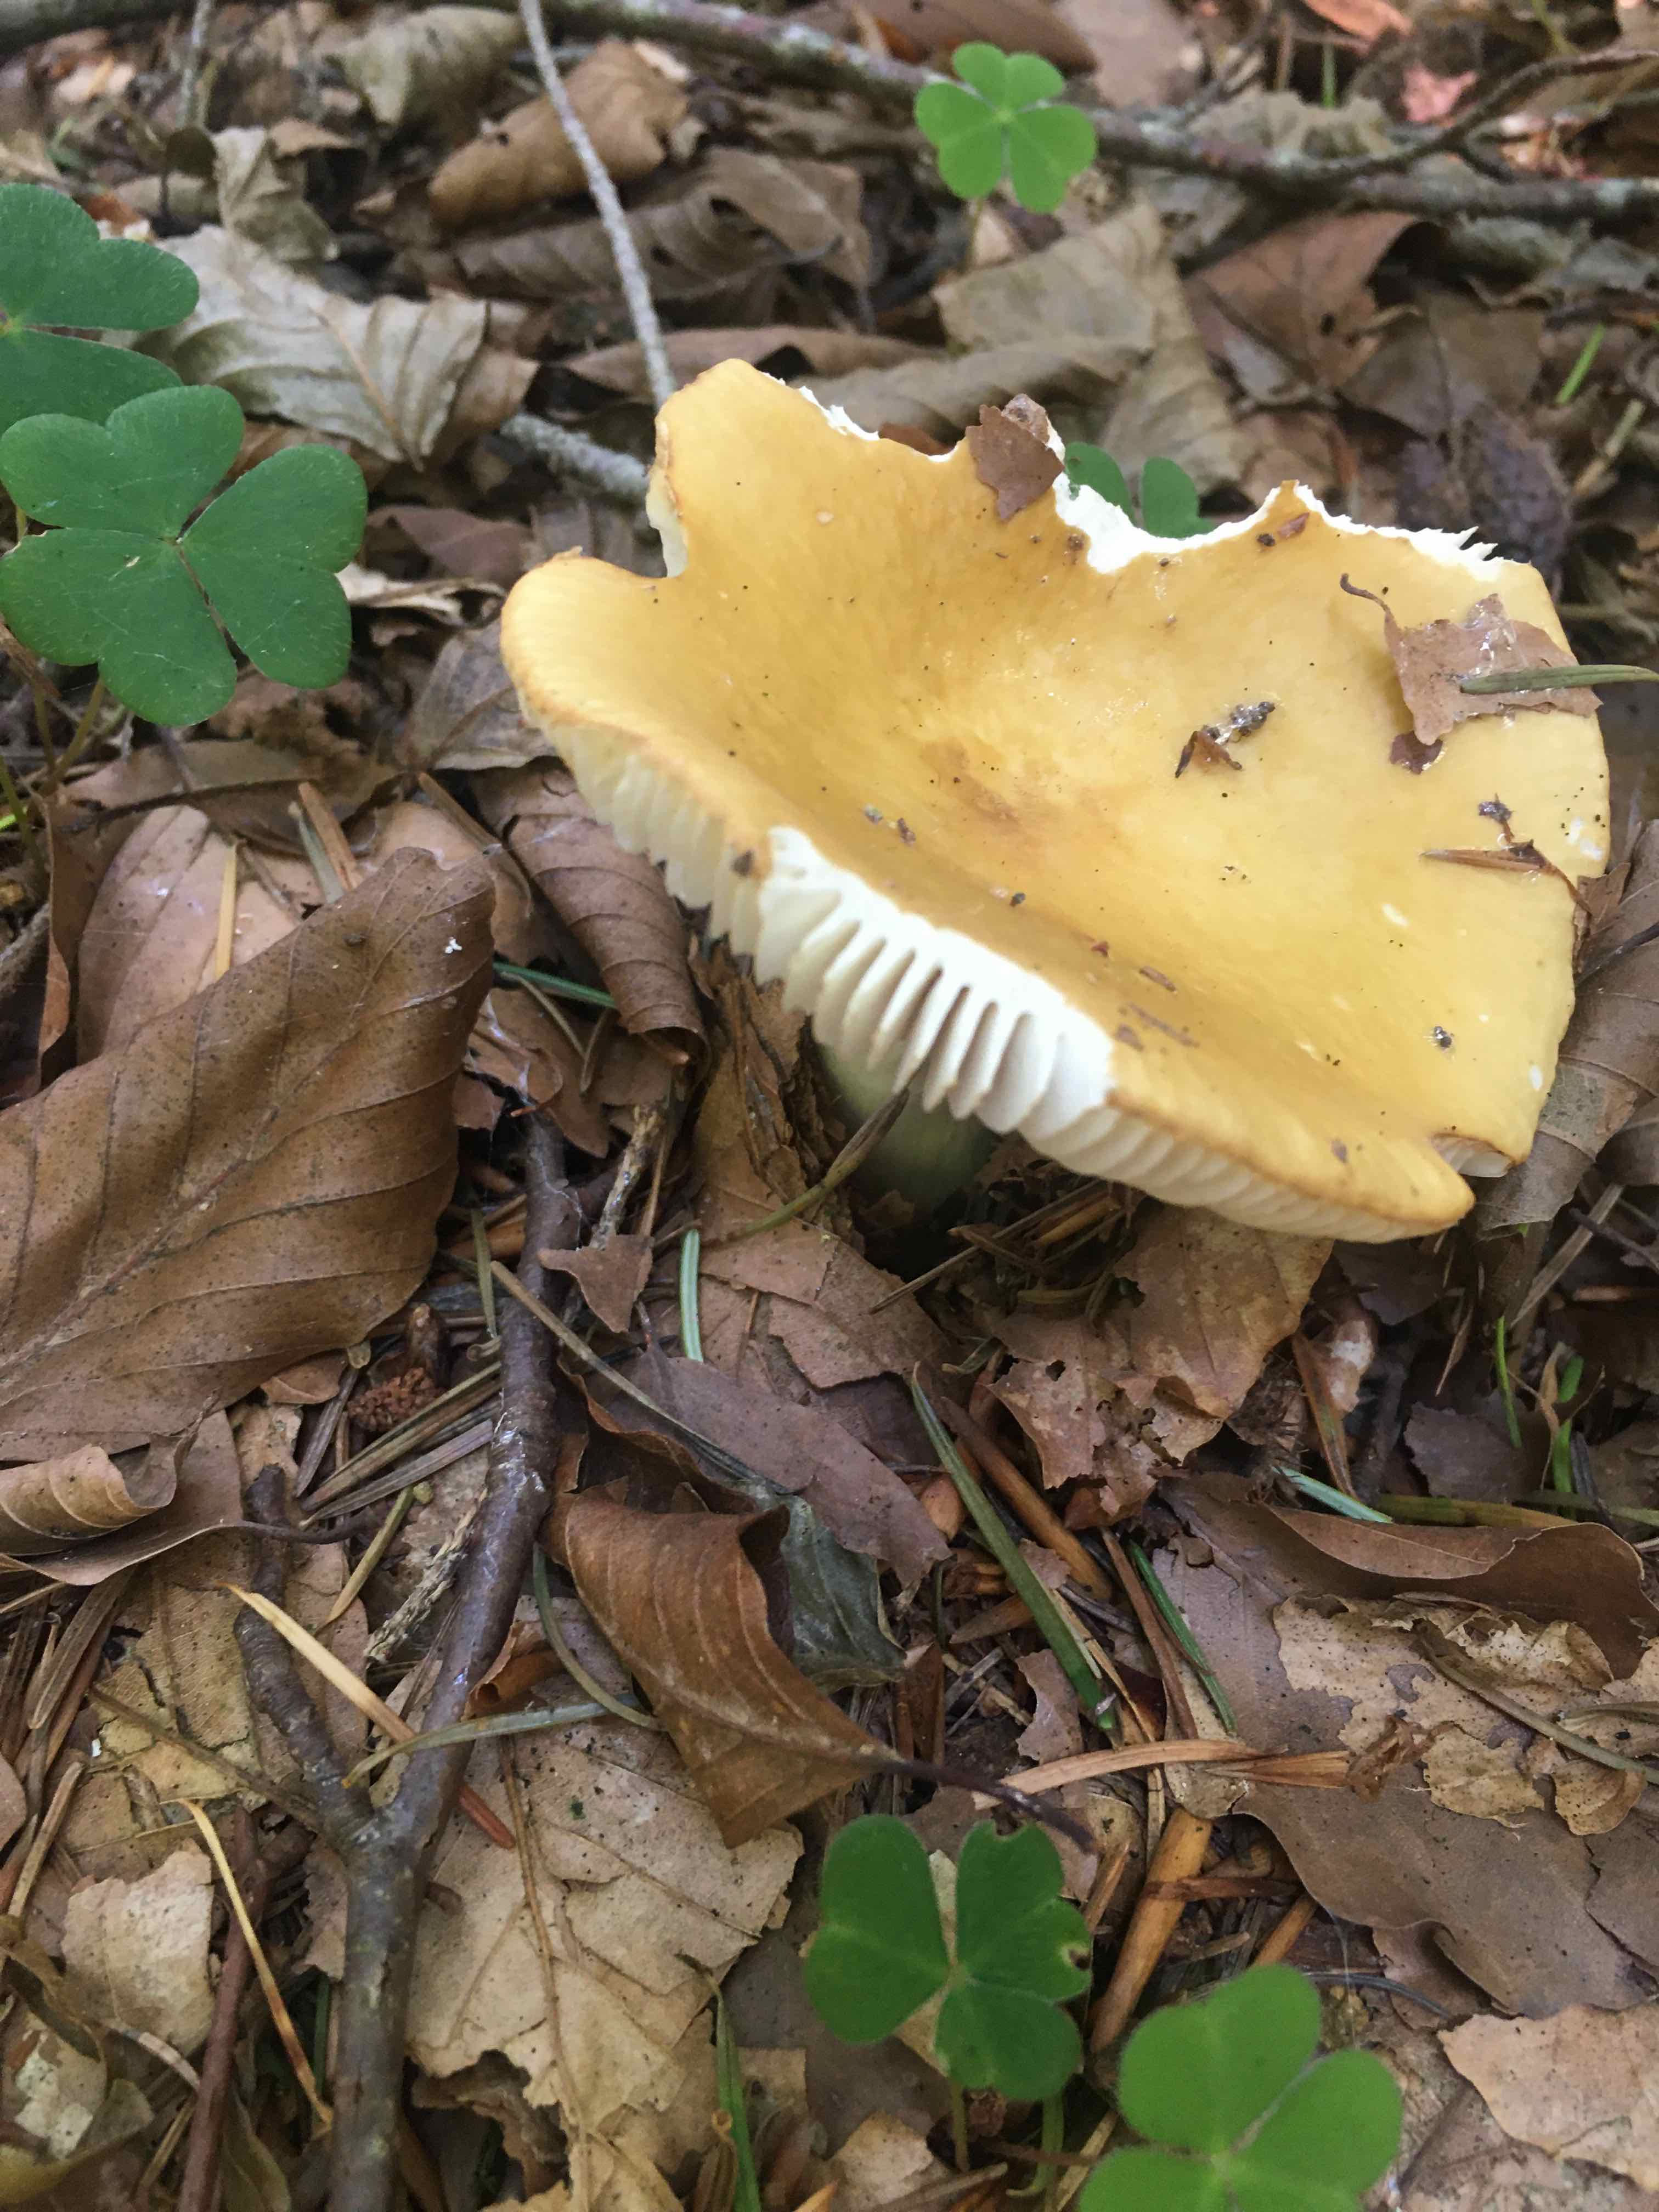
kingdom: Fungi
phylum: Basidiomycota
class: Agaricomycetes
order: Russulales
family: Russulaceae
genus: Russula
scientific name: Russula ochroleuca
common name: okkergul skørhat
